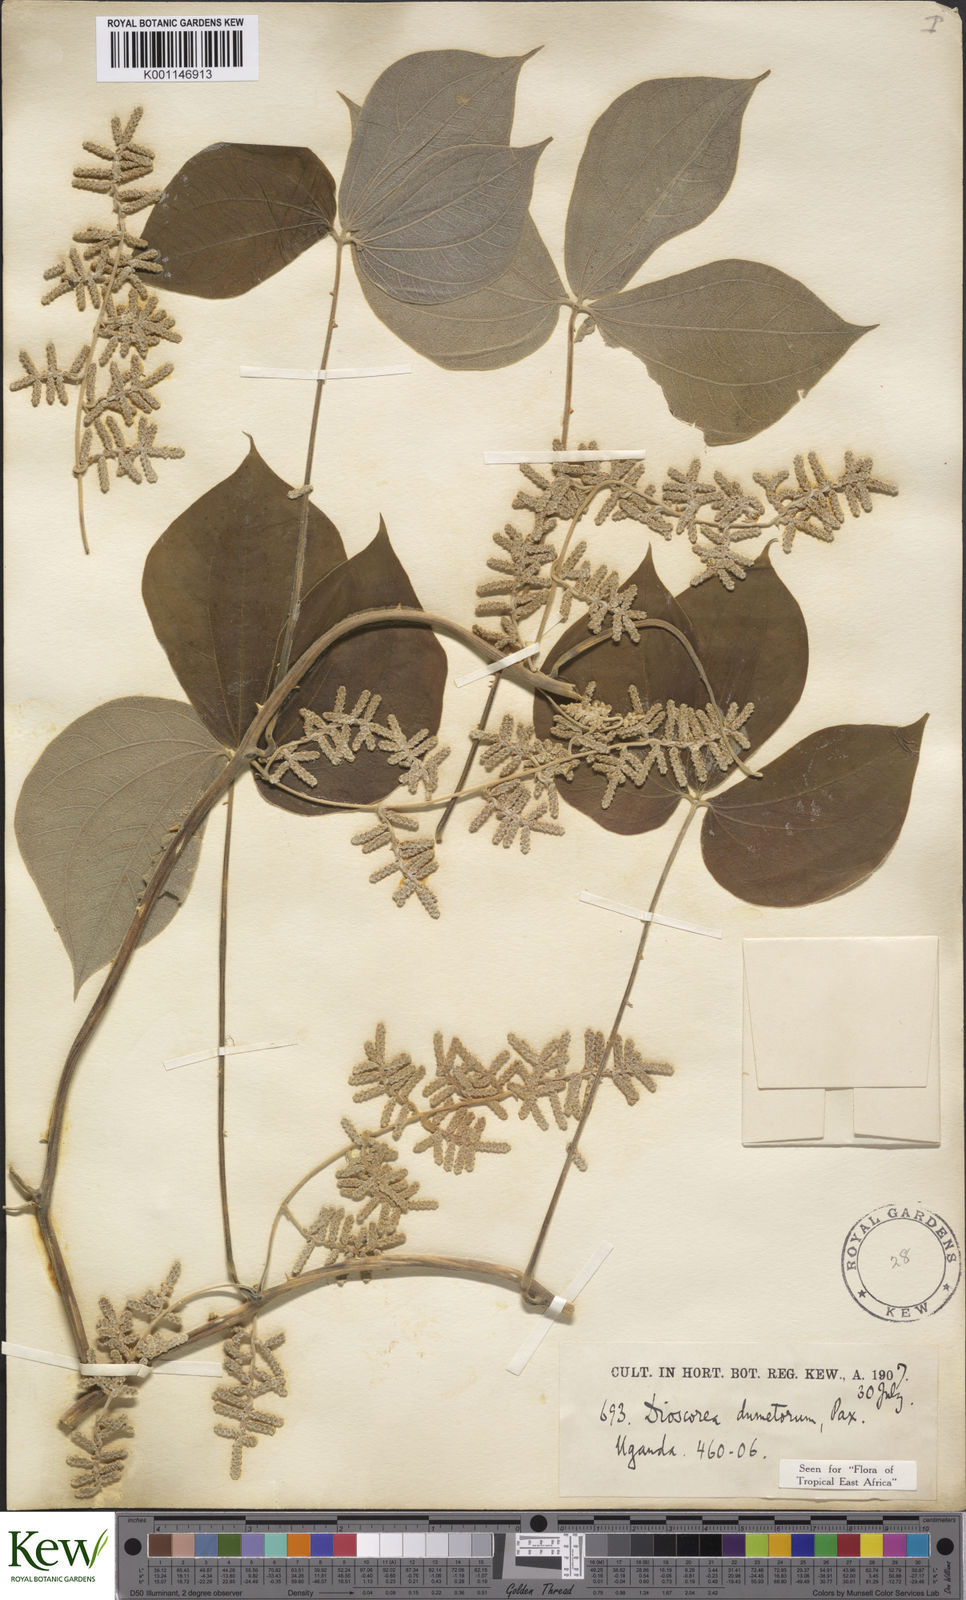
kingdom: Plantae
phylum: Tracheophyta
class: Liliopsida
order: Dioscoreales
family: Dioscoreaceae
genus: Dioscorea
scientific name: Dioscorea dumetorum
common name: African bitter yam
